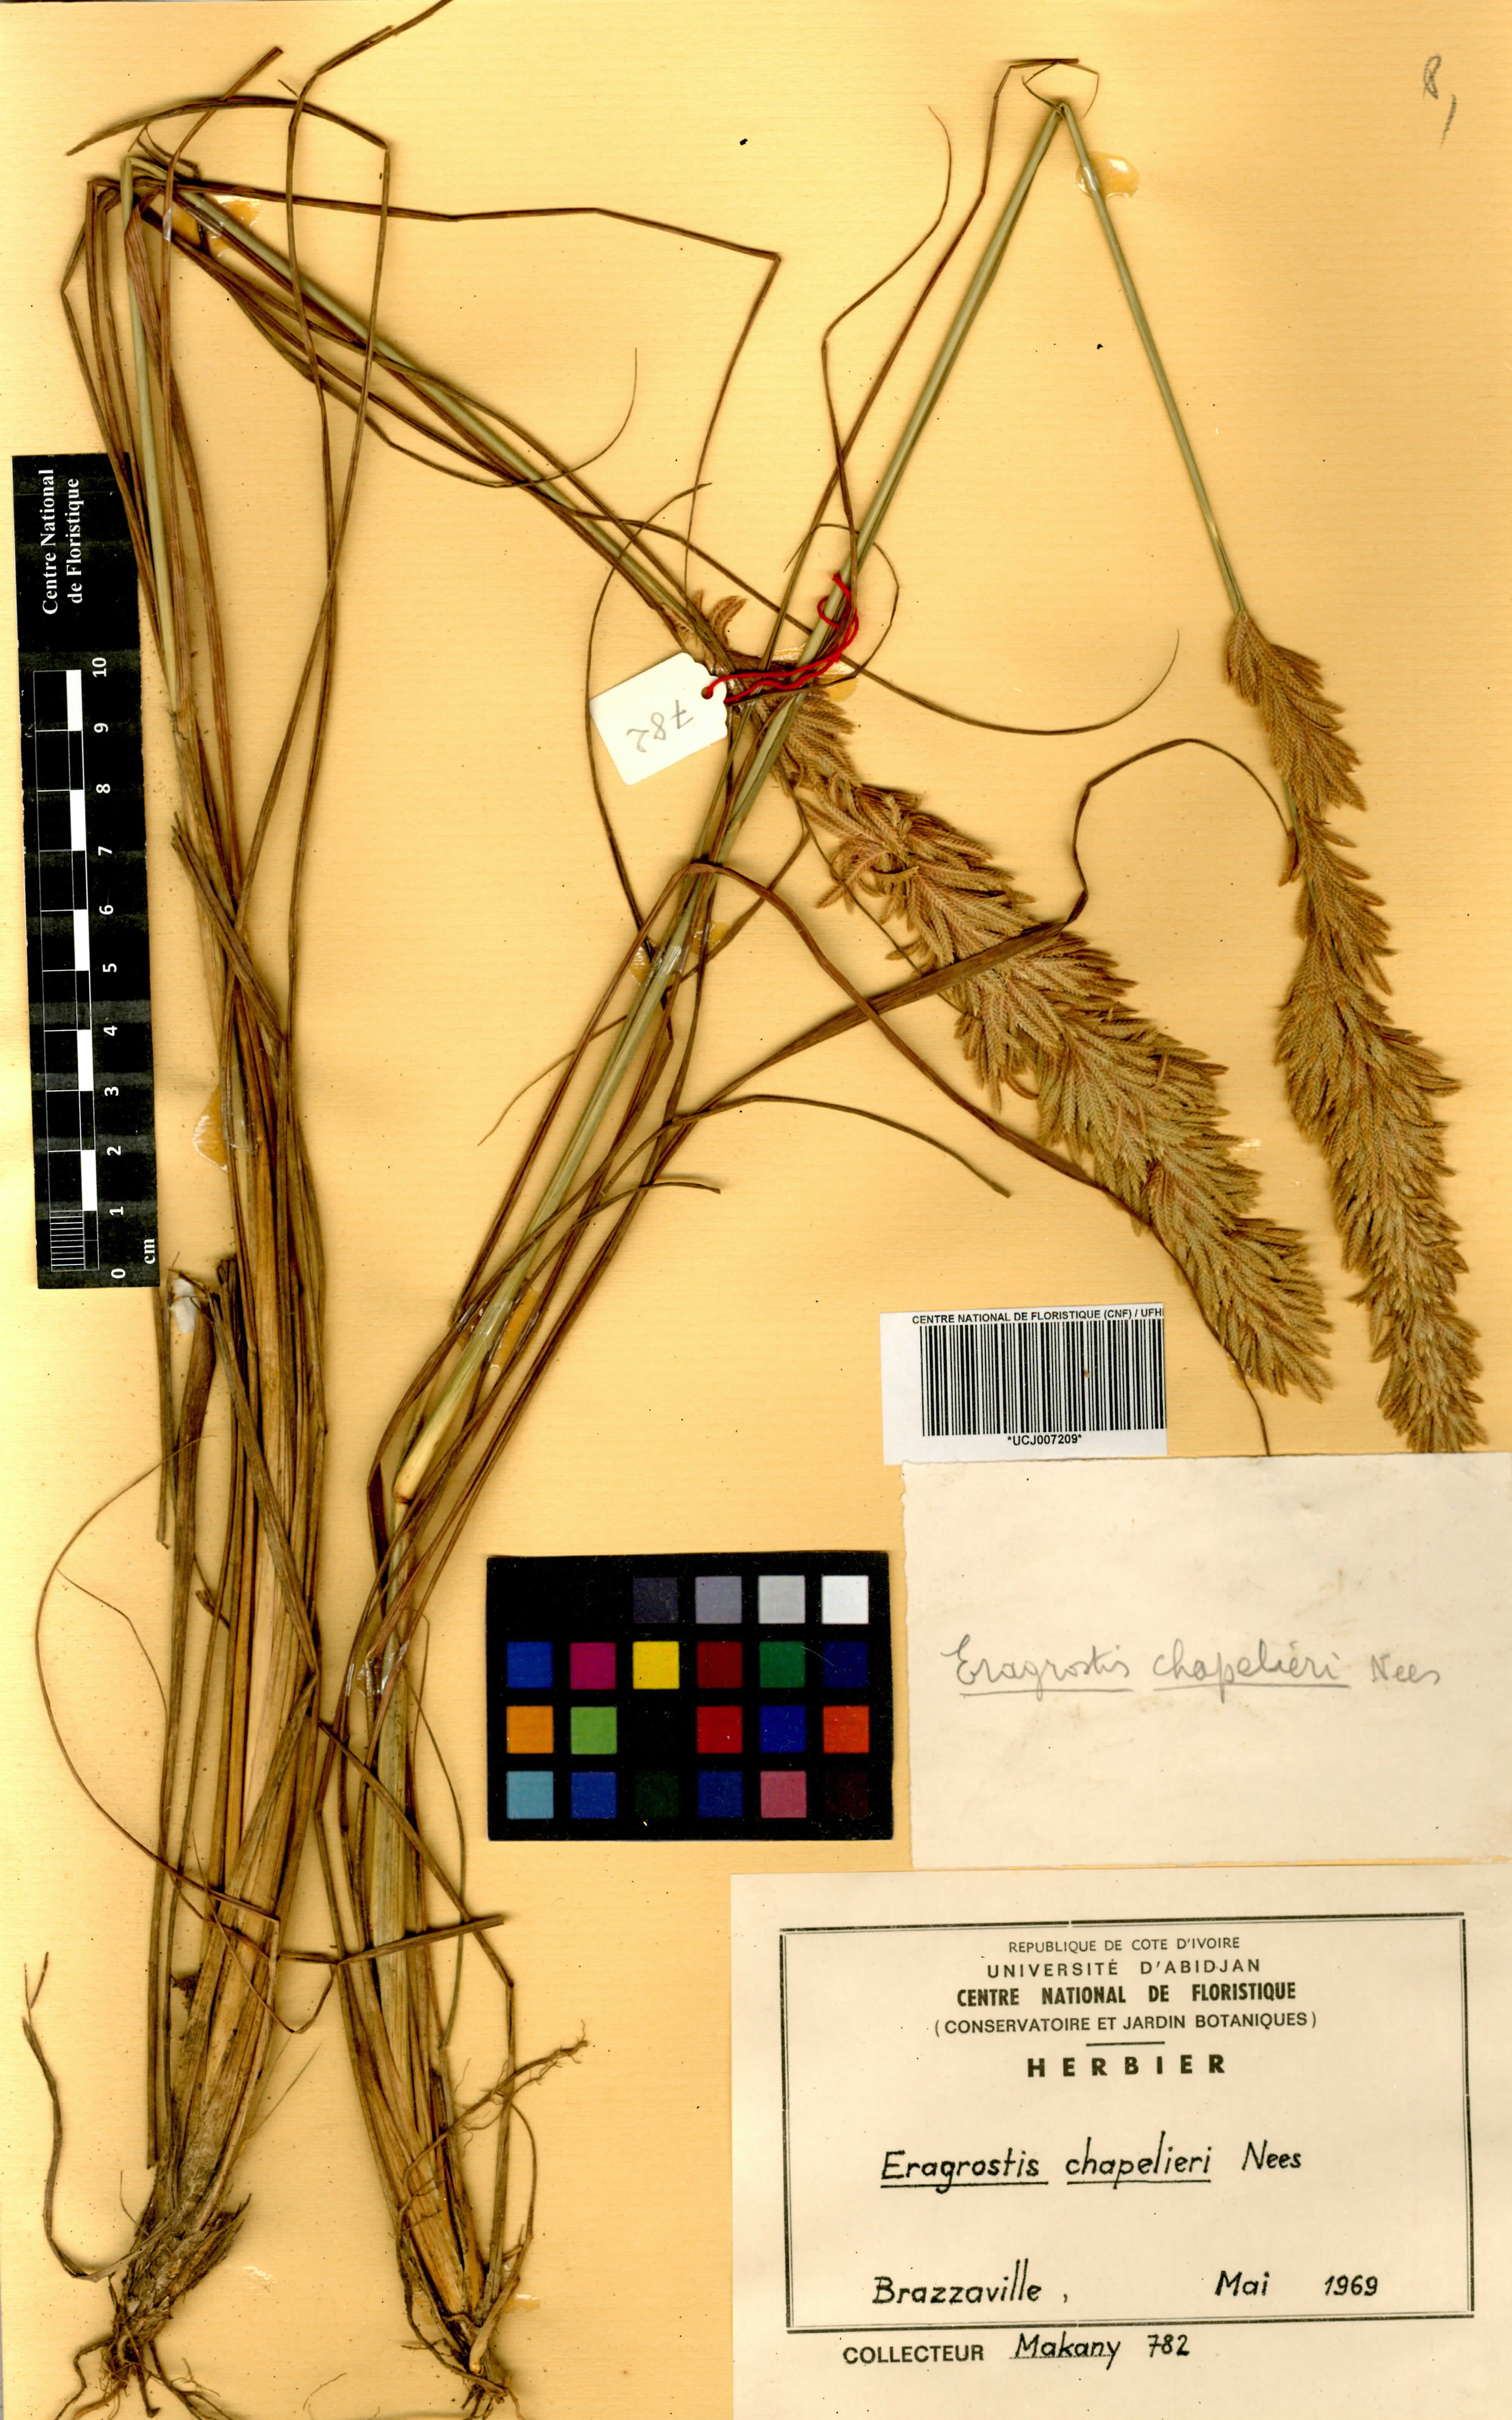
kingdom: Plantae
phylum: Tracheophyta
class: Liliopsida
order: Poales
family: Poaceae
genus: Eragrostis
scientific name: Eragrostis chapelieri
